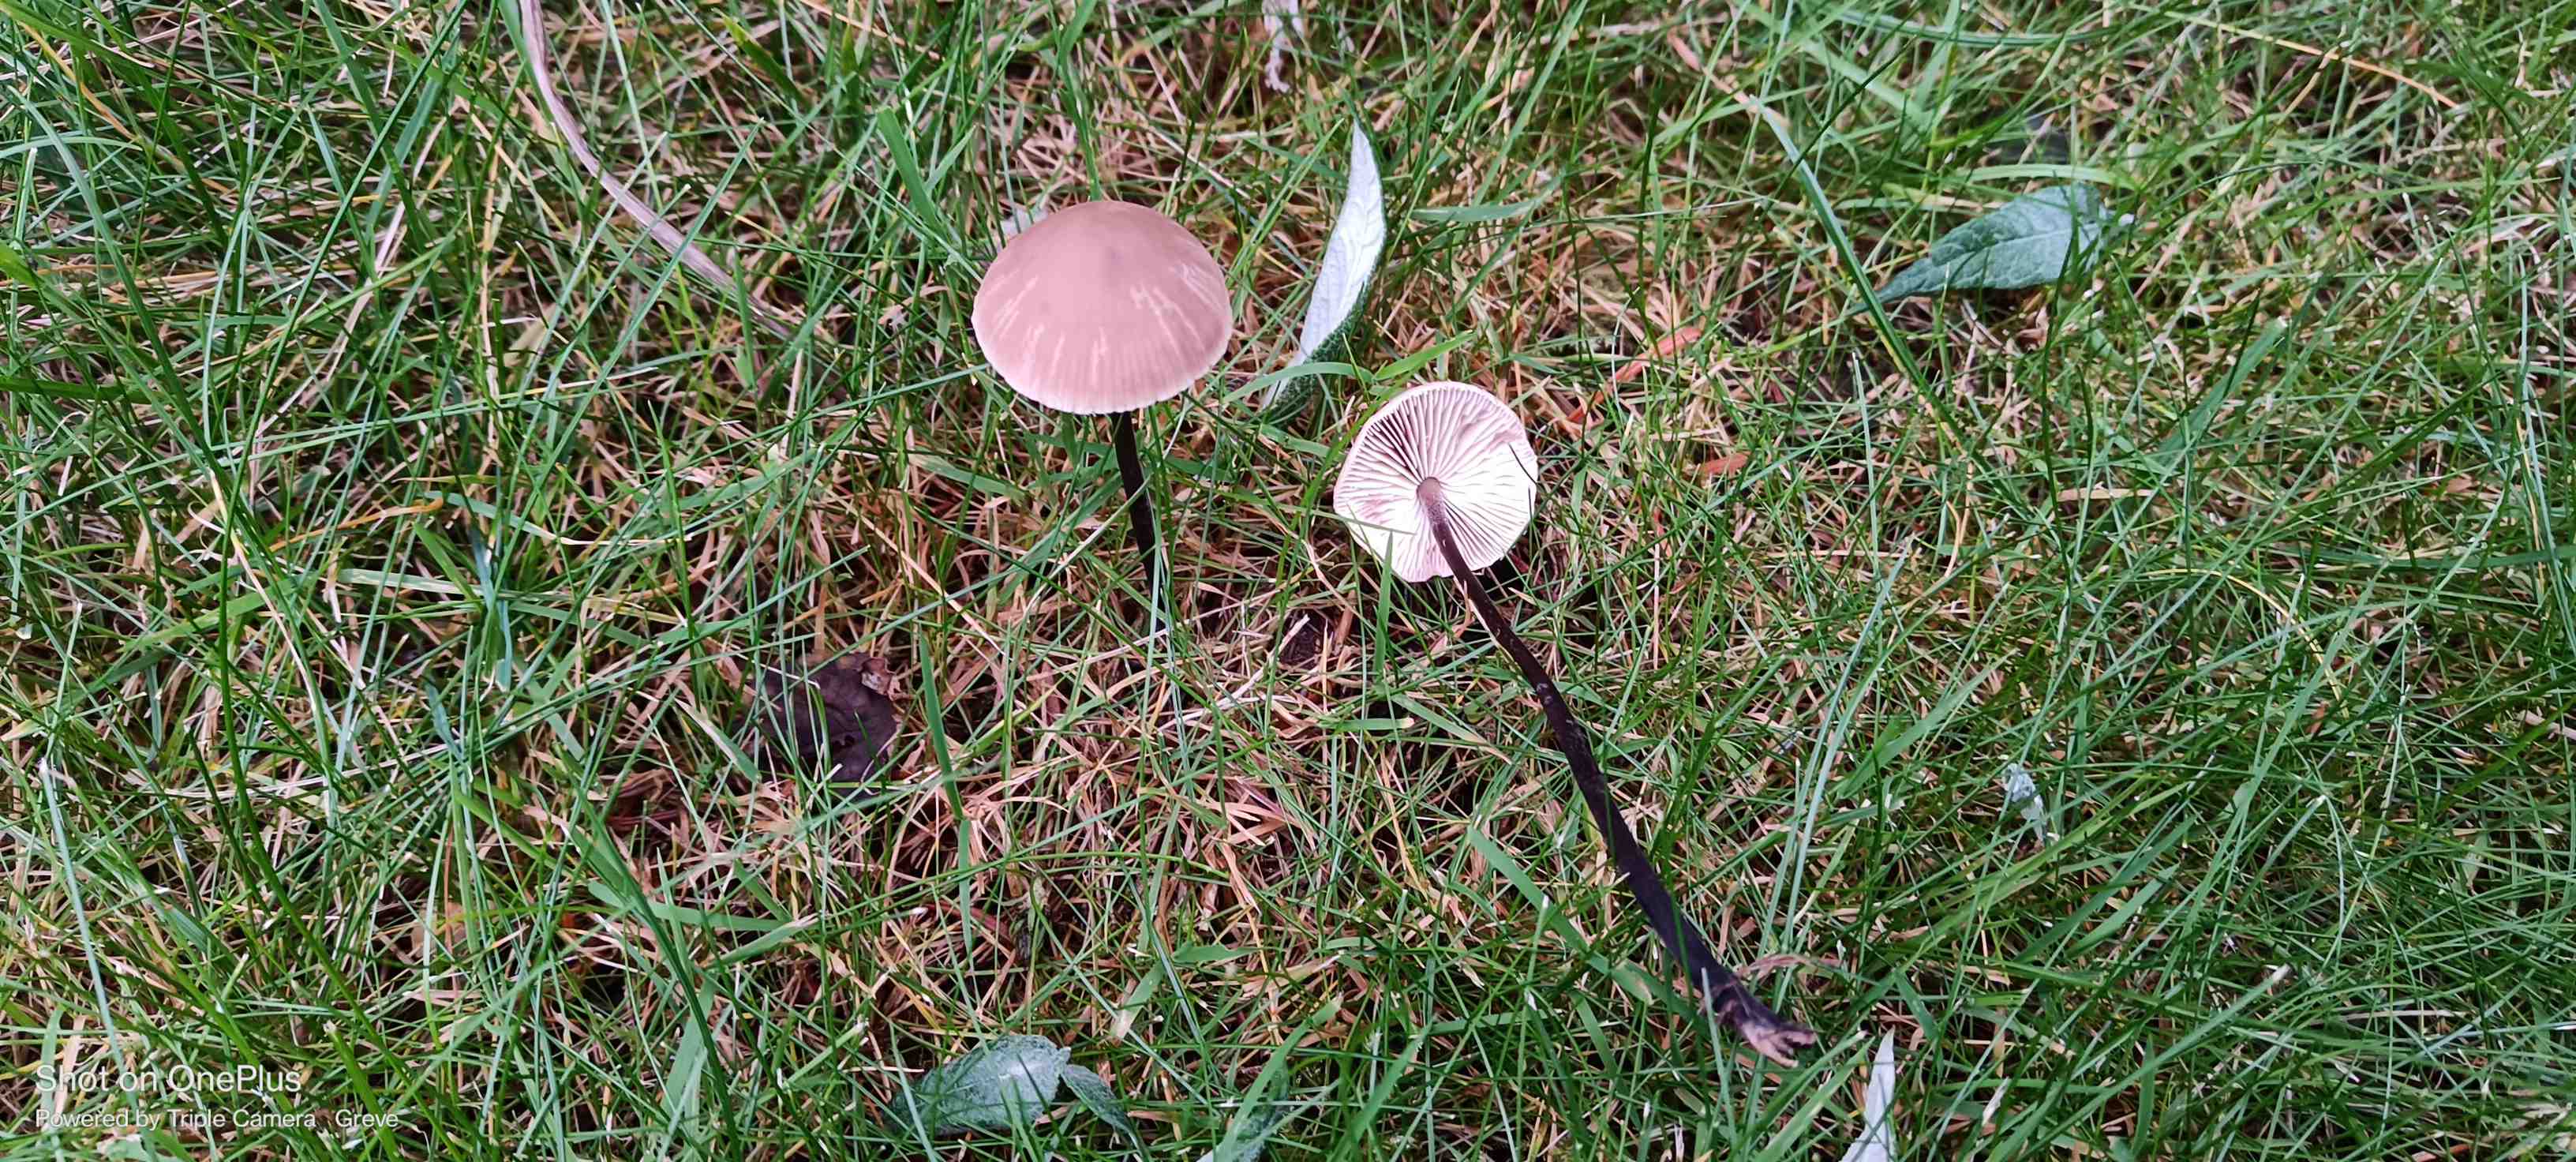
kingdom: Fungi
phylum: Basidiomycota
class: Agaricomycetes
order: Agaricales
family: Omphalotaceae
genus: Mycetinis
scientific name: Mycetinis alliaceus
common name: stor løghat
